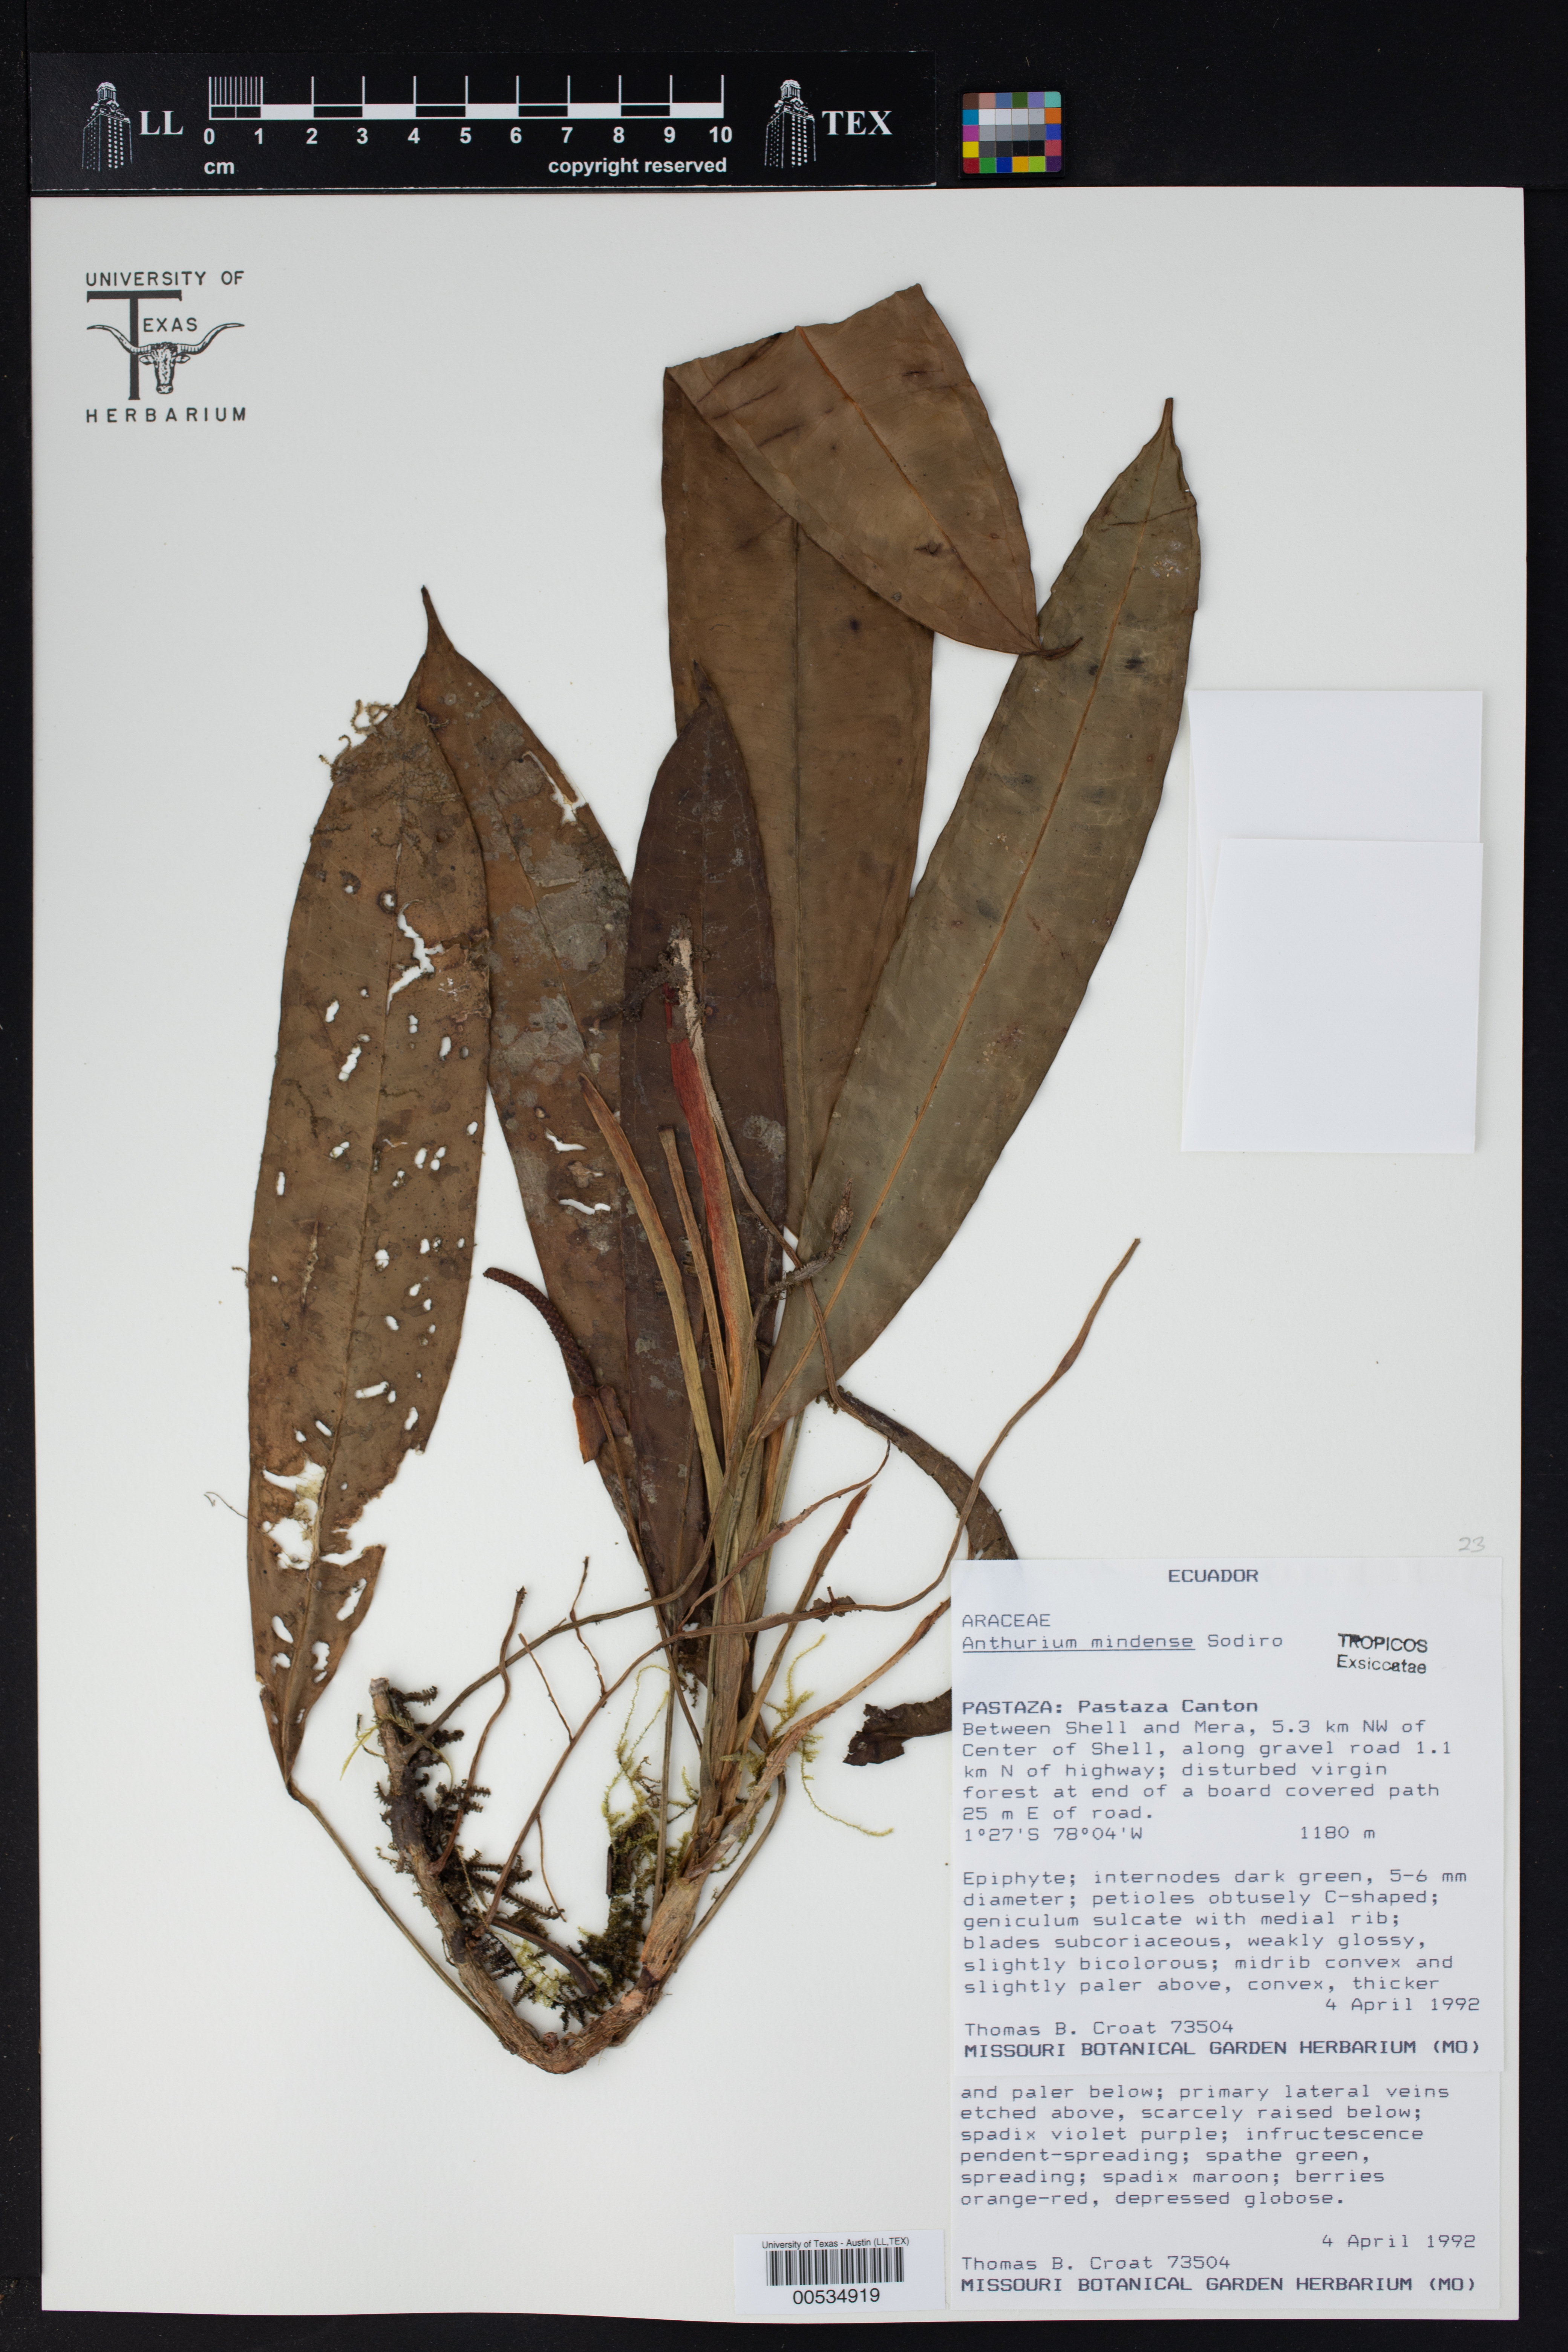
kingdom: Plantae
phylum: Tracheophyta
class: Liliopsida
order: Alismatales
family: Araceae
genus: Anthurium
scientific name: Anthurium mindense
